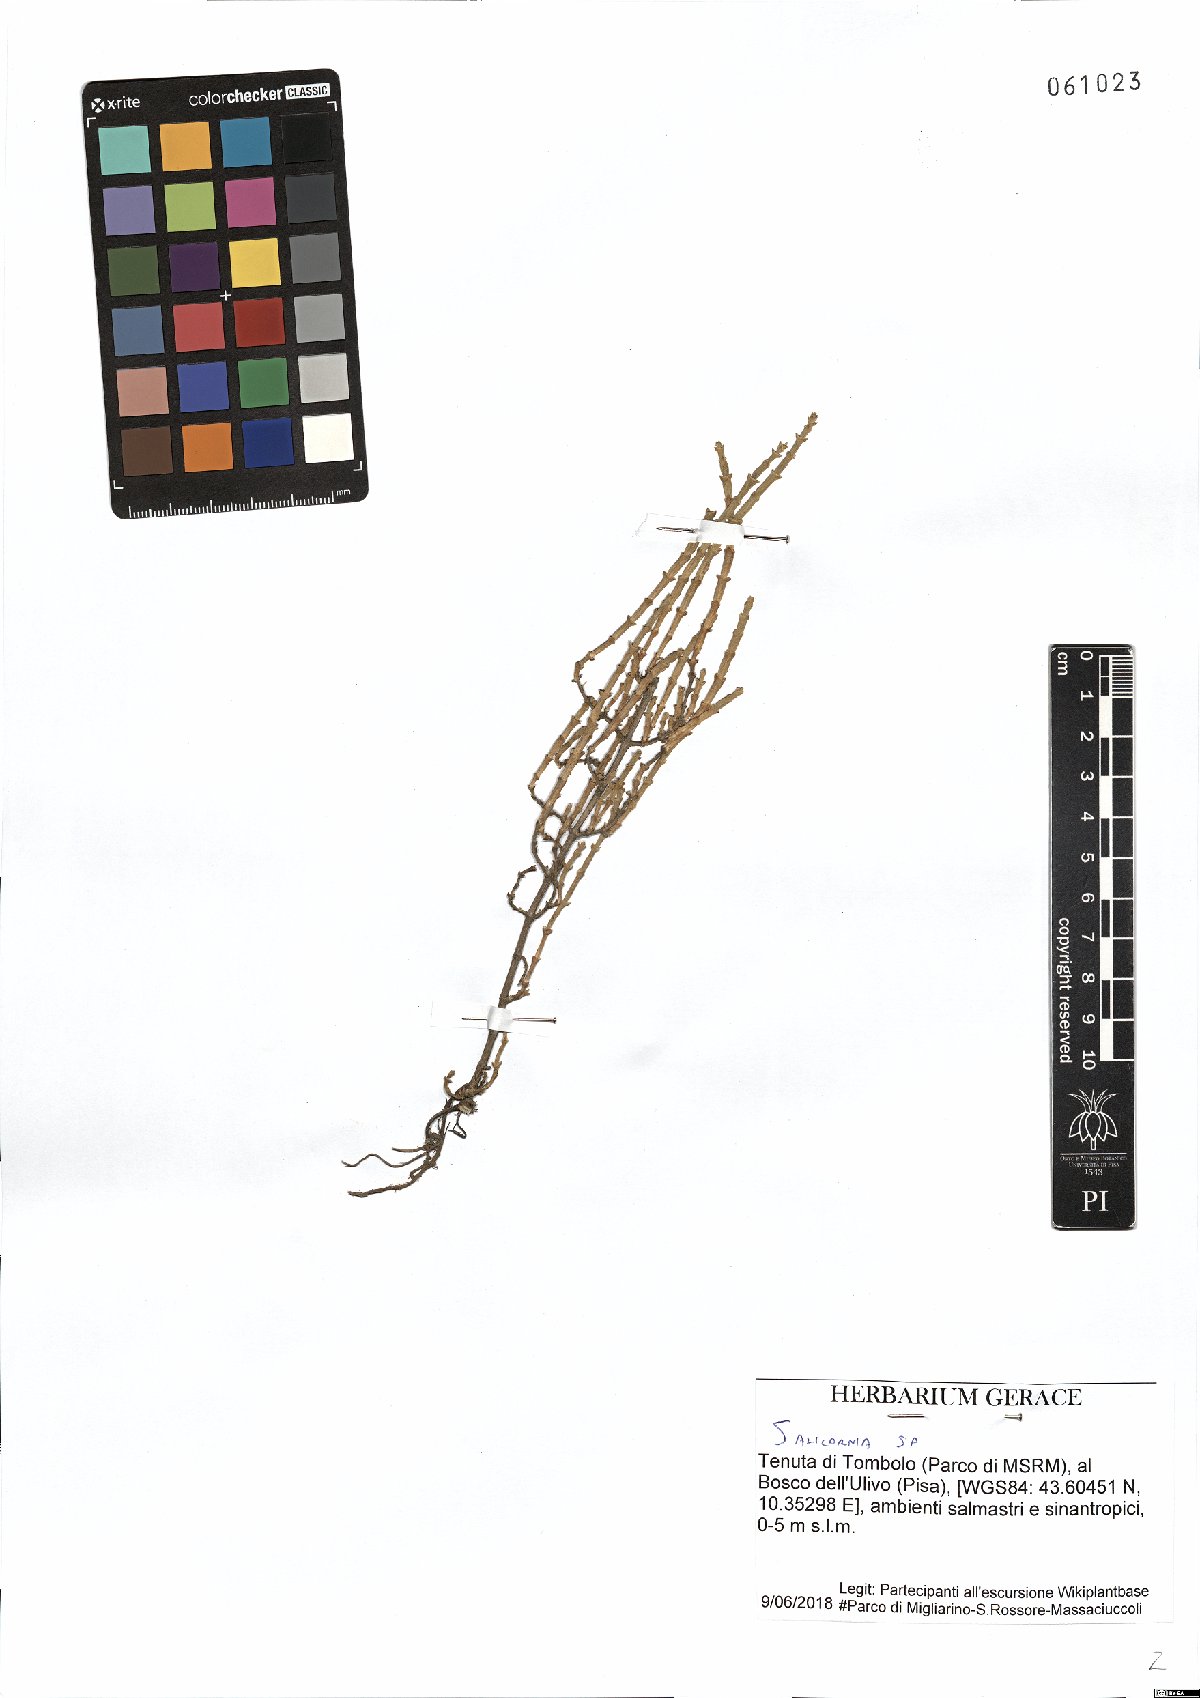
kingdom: Plantae
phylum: Tracheophyta
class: Magnoliopsida
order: Caryophyllales
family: Amaranthaceae
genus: Salicornia
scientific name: Salicornia
